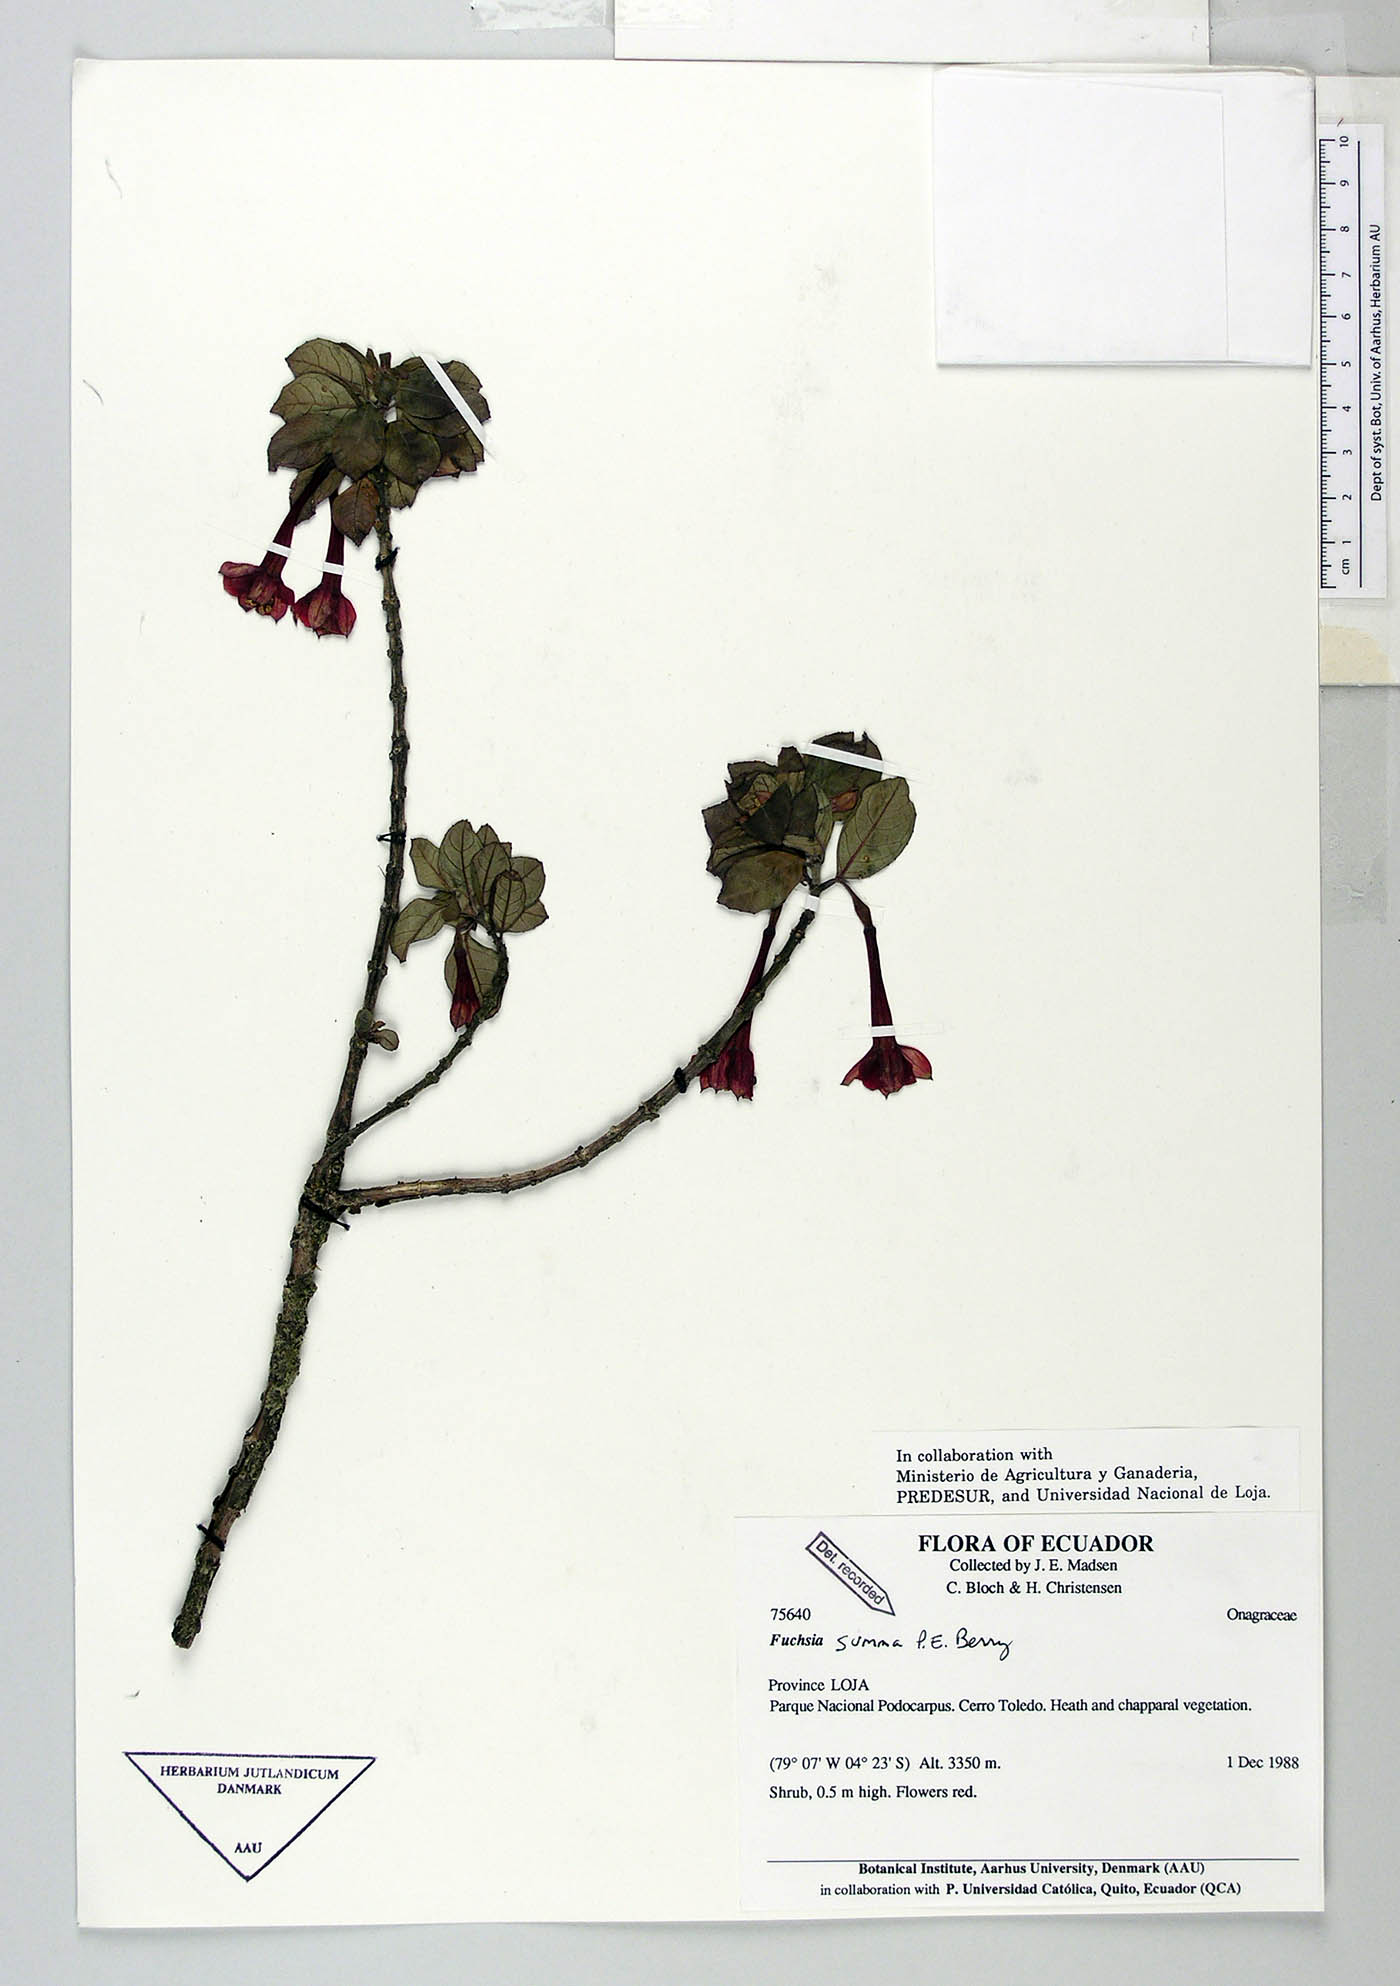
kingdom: Plantae
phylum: Tracheophyta
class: Magnoliopsida
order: Myrtales
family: Onagraceae
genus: Fuchsia
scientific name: Fuchsia summa
